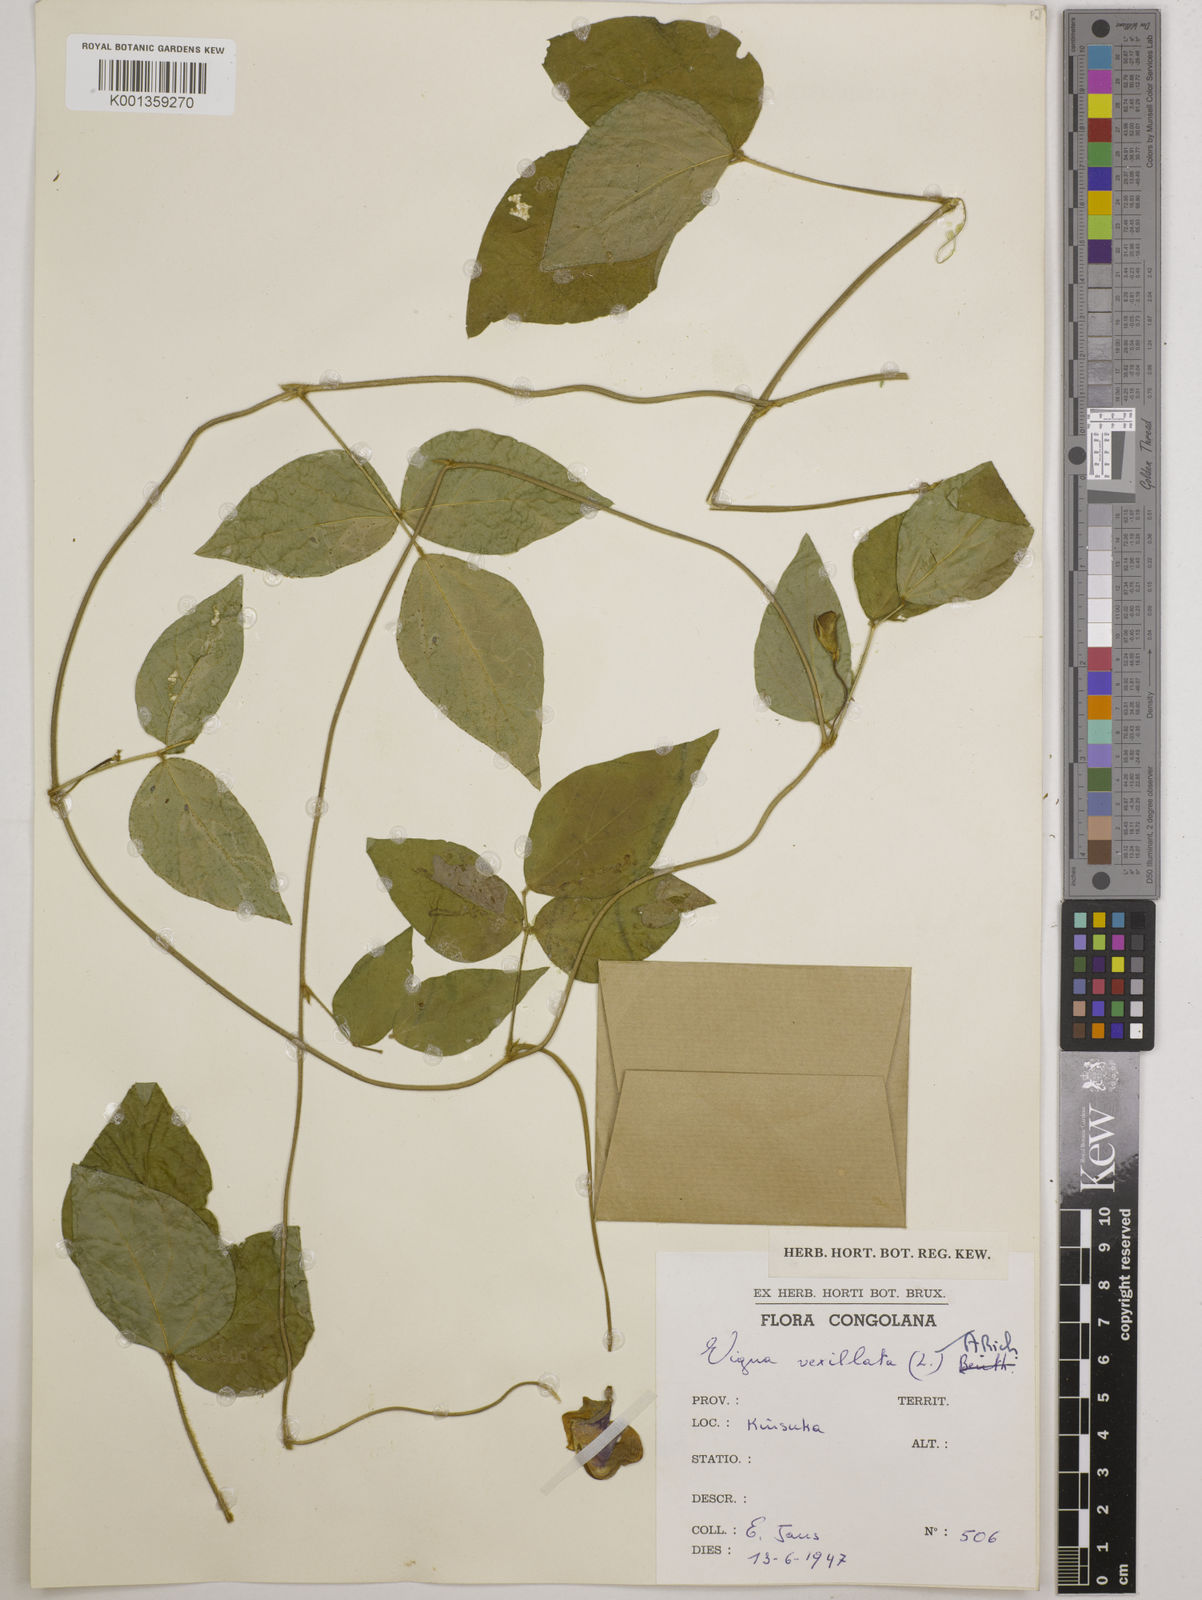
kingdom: Plantae
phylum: Tracheophyta
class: Magnoliopsida
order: Fabales
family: Fabaceae
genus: Vigna
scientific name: Vigna vexillata
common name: Zombi pea
